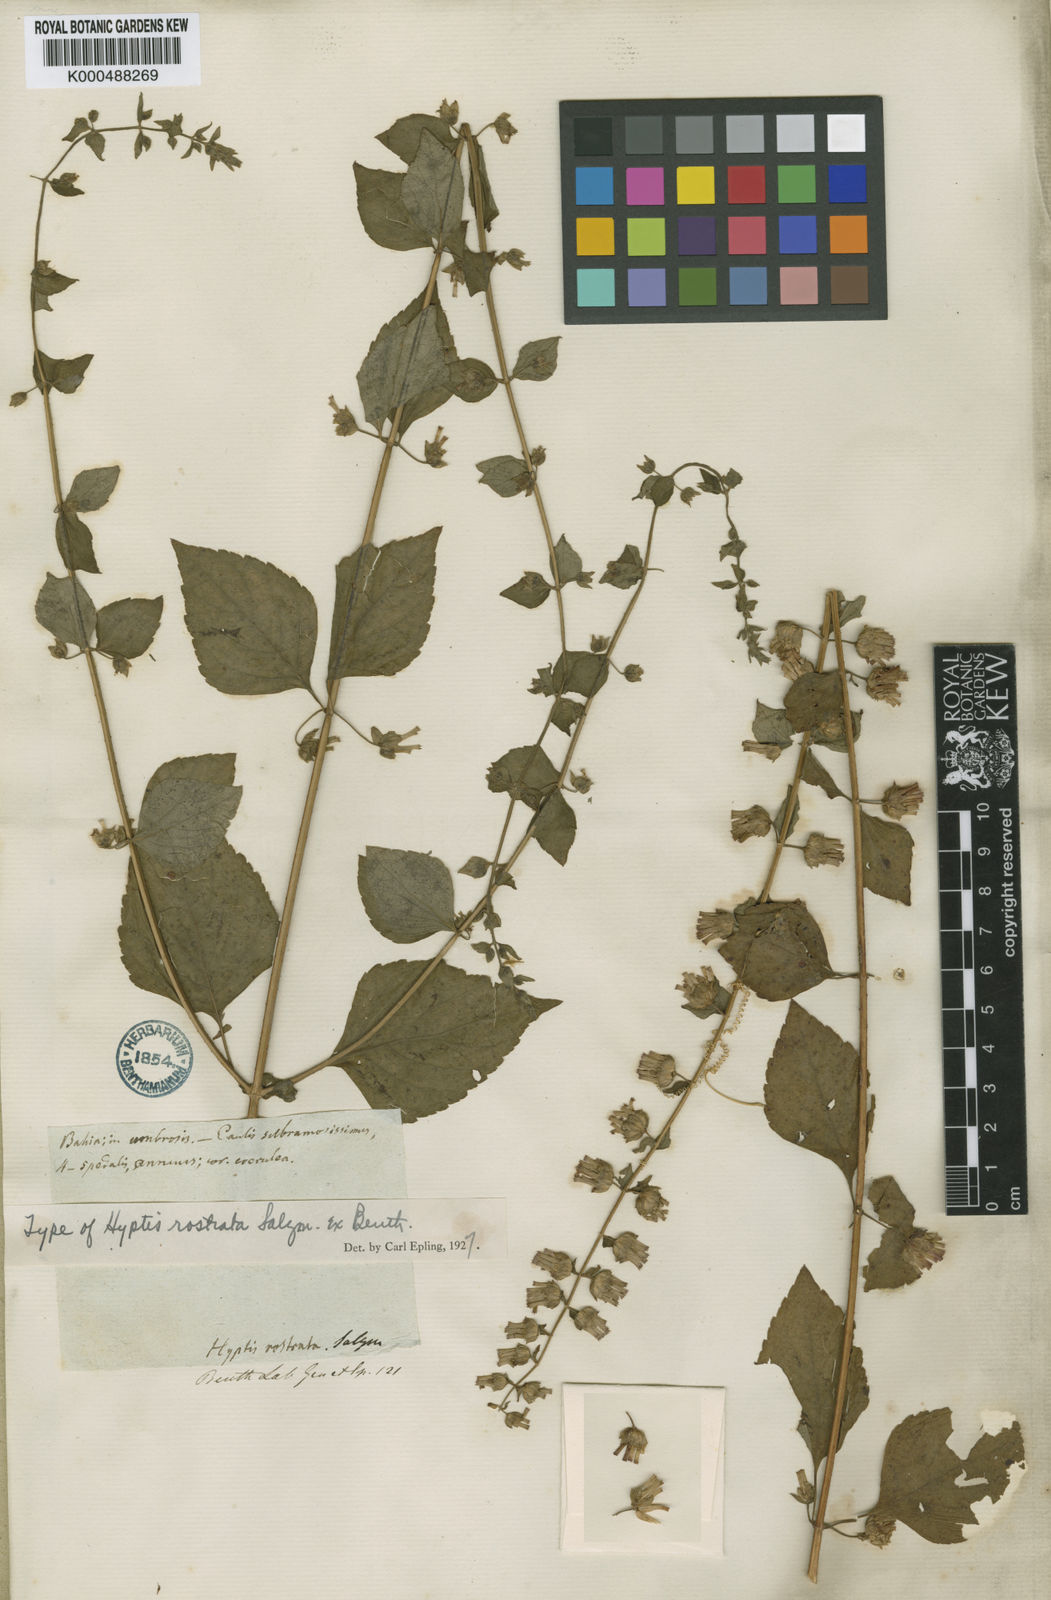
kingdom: Plantae
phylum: Tracheophyta
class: Magnoliopsida
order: Lamiales
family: Lamiaceae
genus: Cantinoa
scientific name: Cantinoa mutabilis
